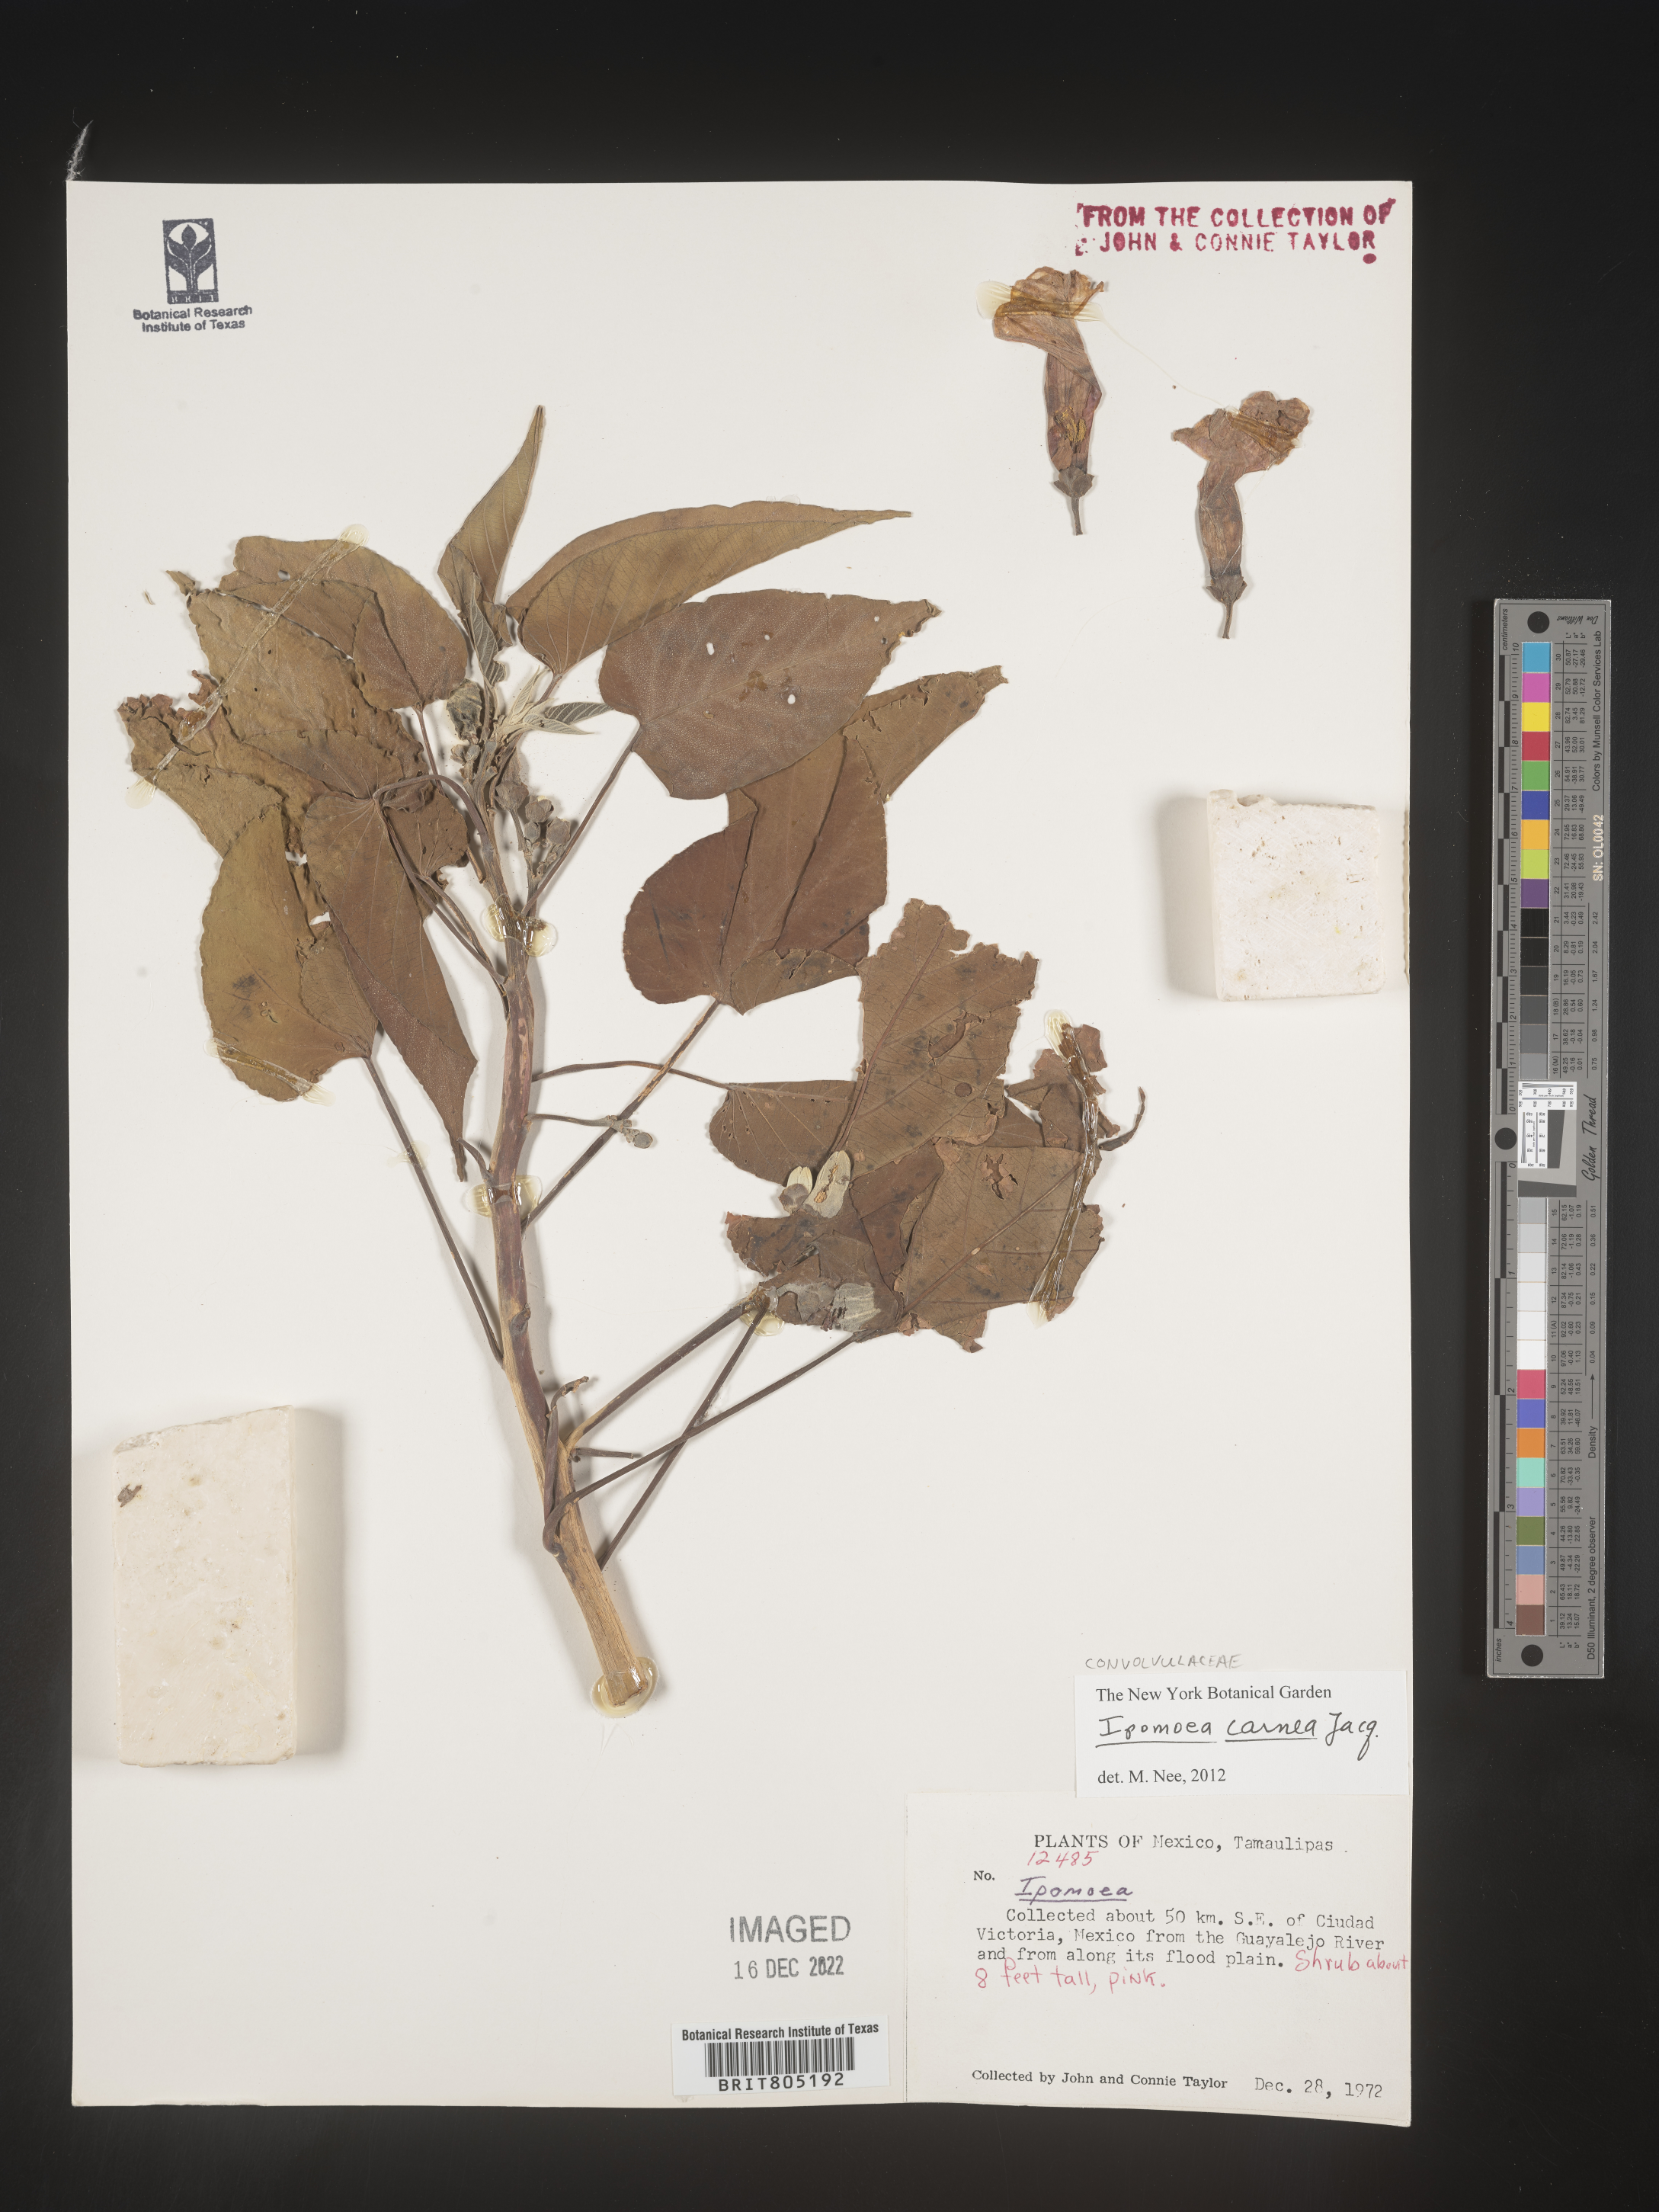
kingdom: Plantae
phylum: Tracheophyta
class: Magnoliopsida
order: Solanales
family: Convolvulaceae
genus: Ipomoea
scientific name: Ipomoea
